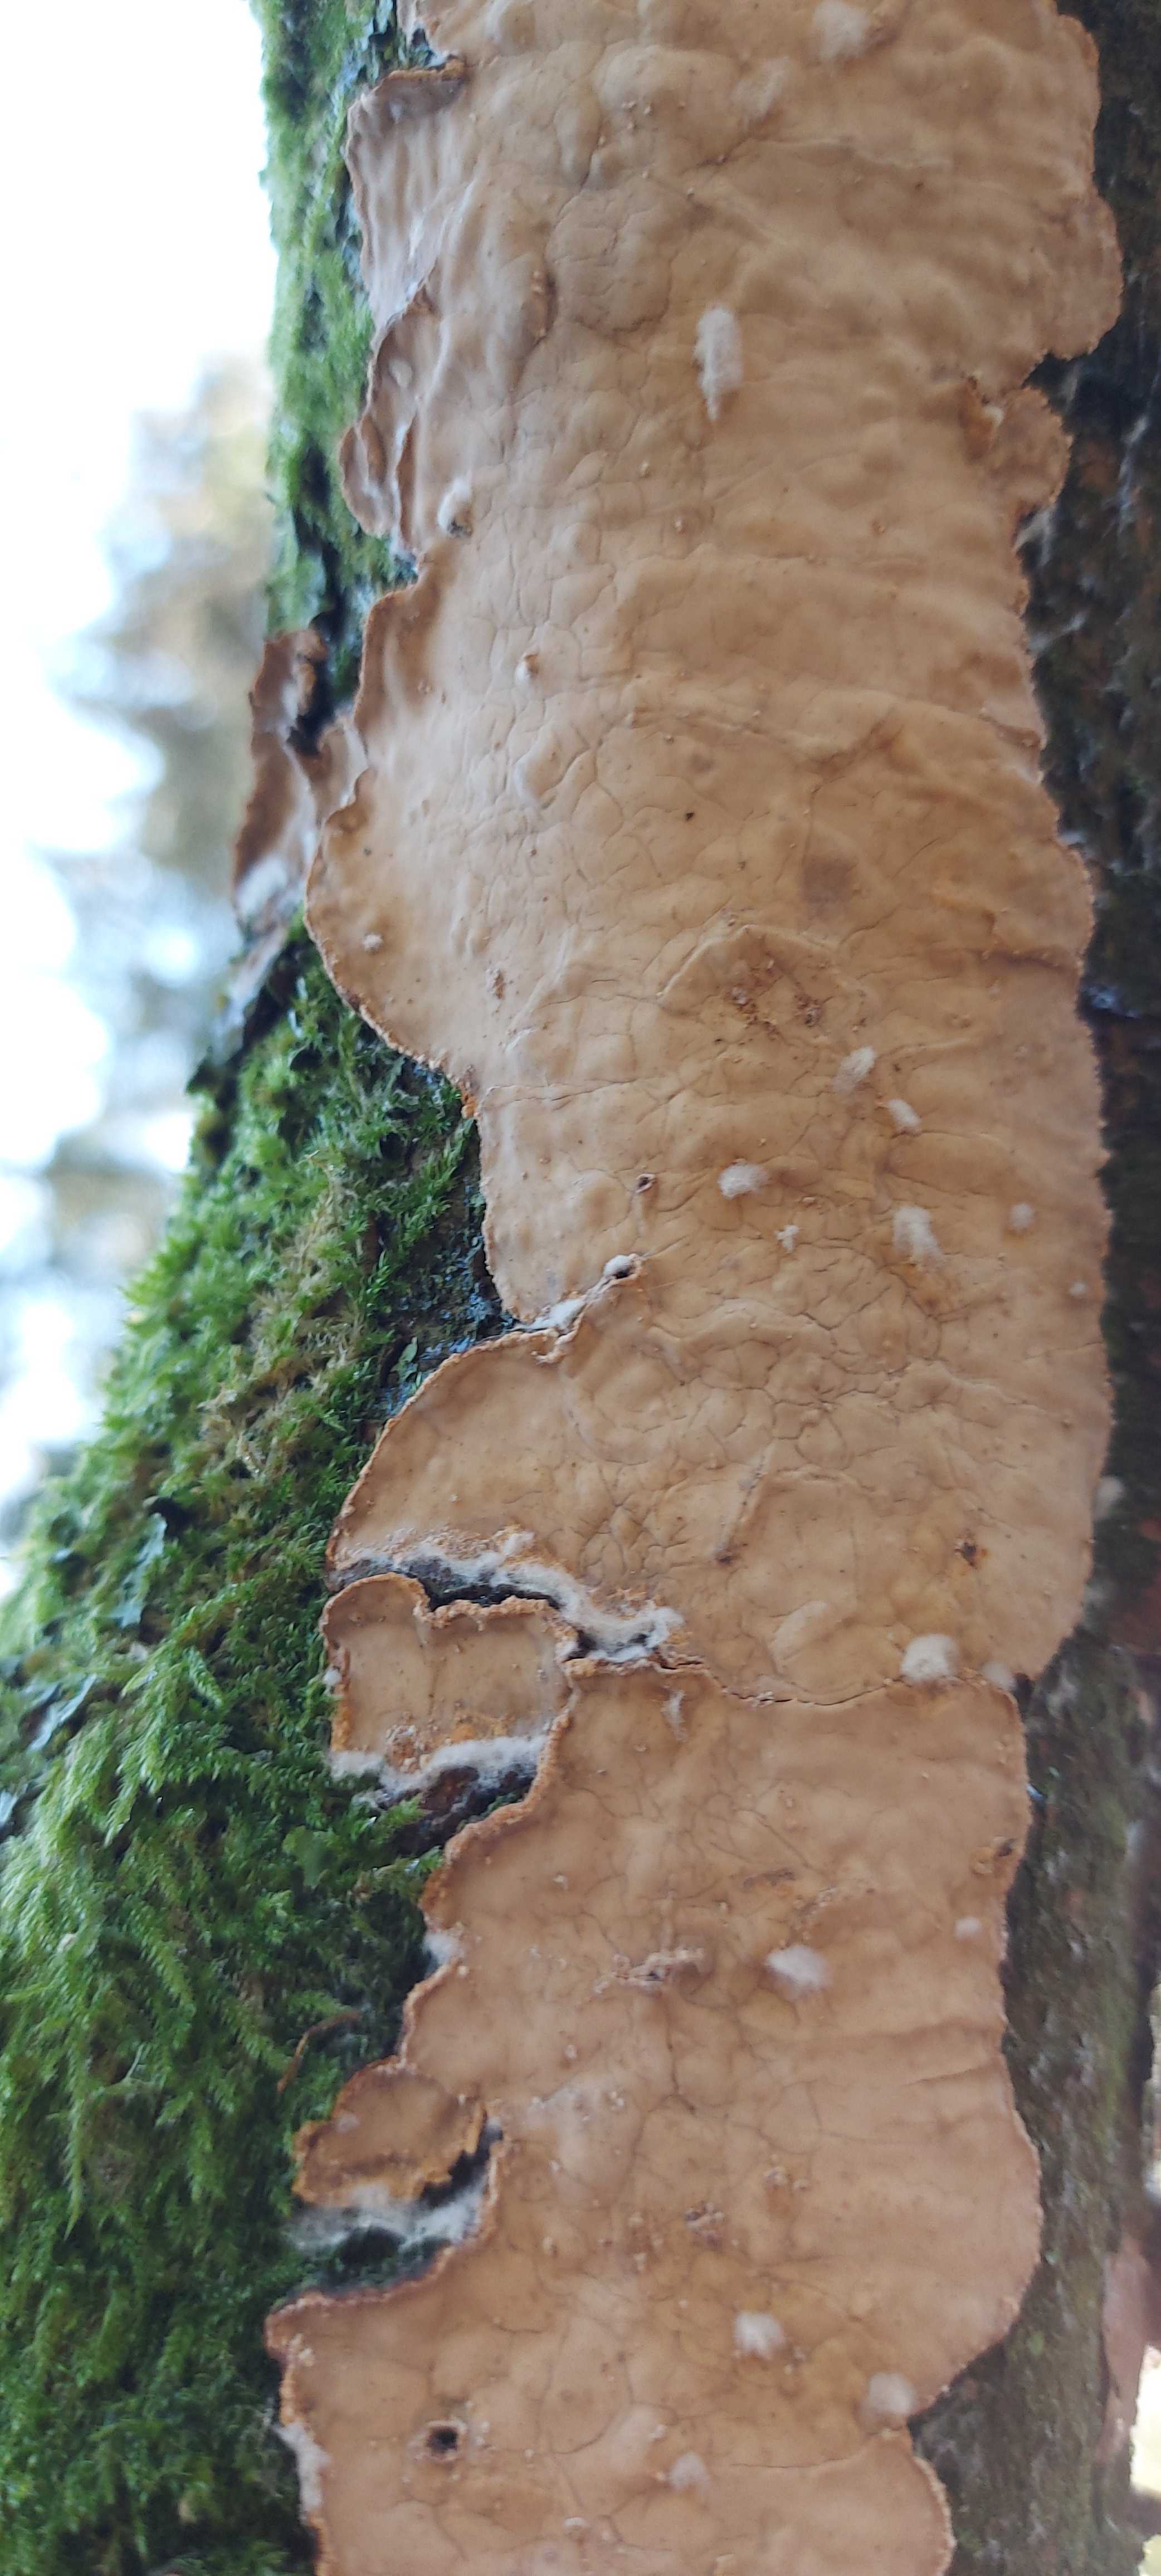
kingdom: Fungi
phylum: Basidiomycota
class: Agaricomycetes
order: Corticiales
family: Corticiaceae
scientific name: Corticiaceae
